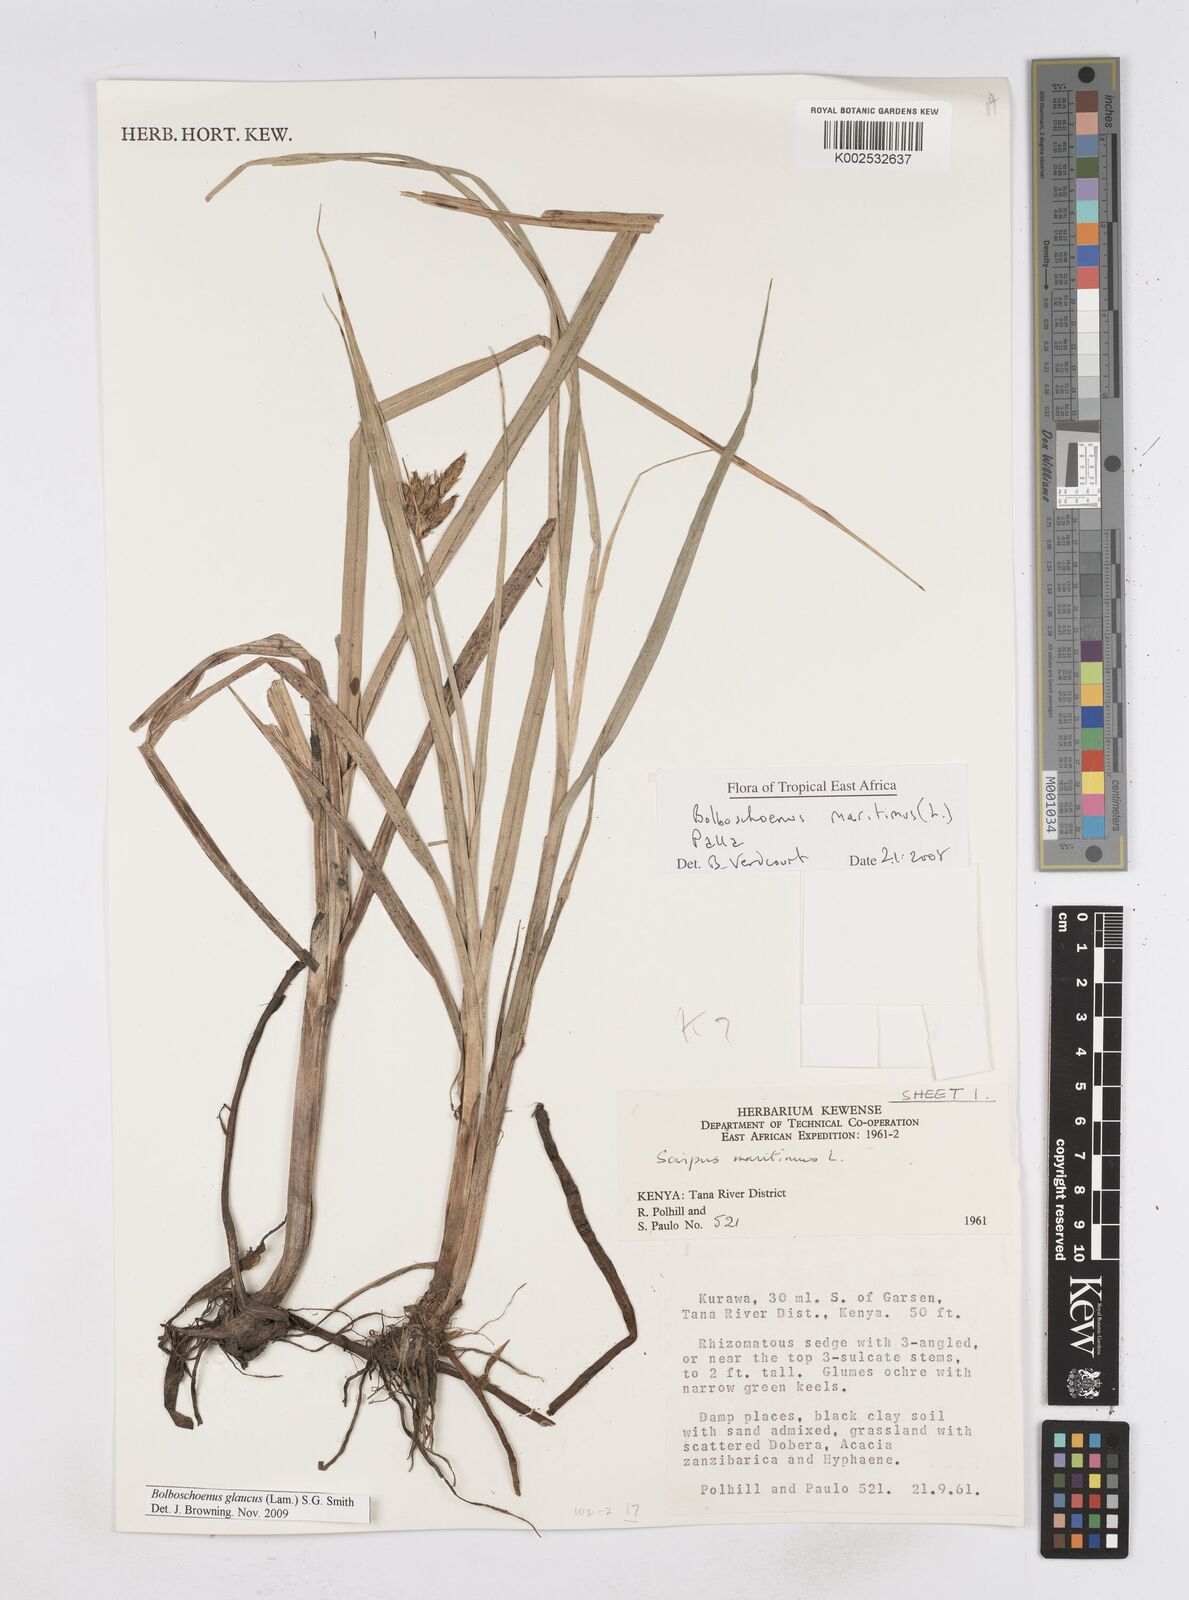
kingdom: Plantae
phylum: Tracheophyta
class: Liliopsida
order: Poales
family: Cyperaceae
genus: Bolboschoenus
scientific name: Bolboschoenus glaucus
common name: Tuberous bulrush
